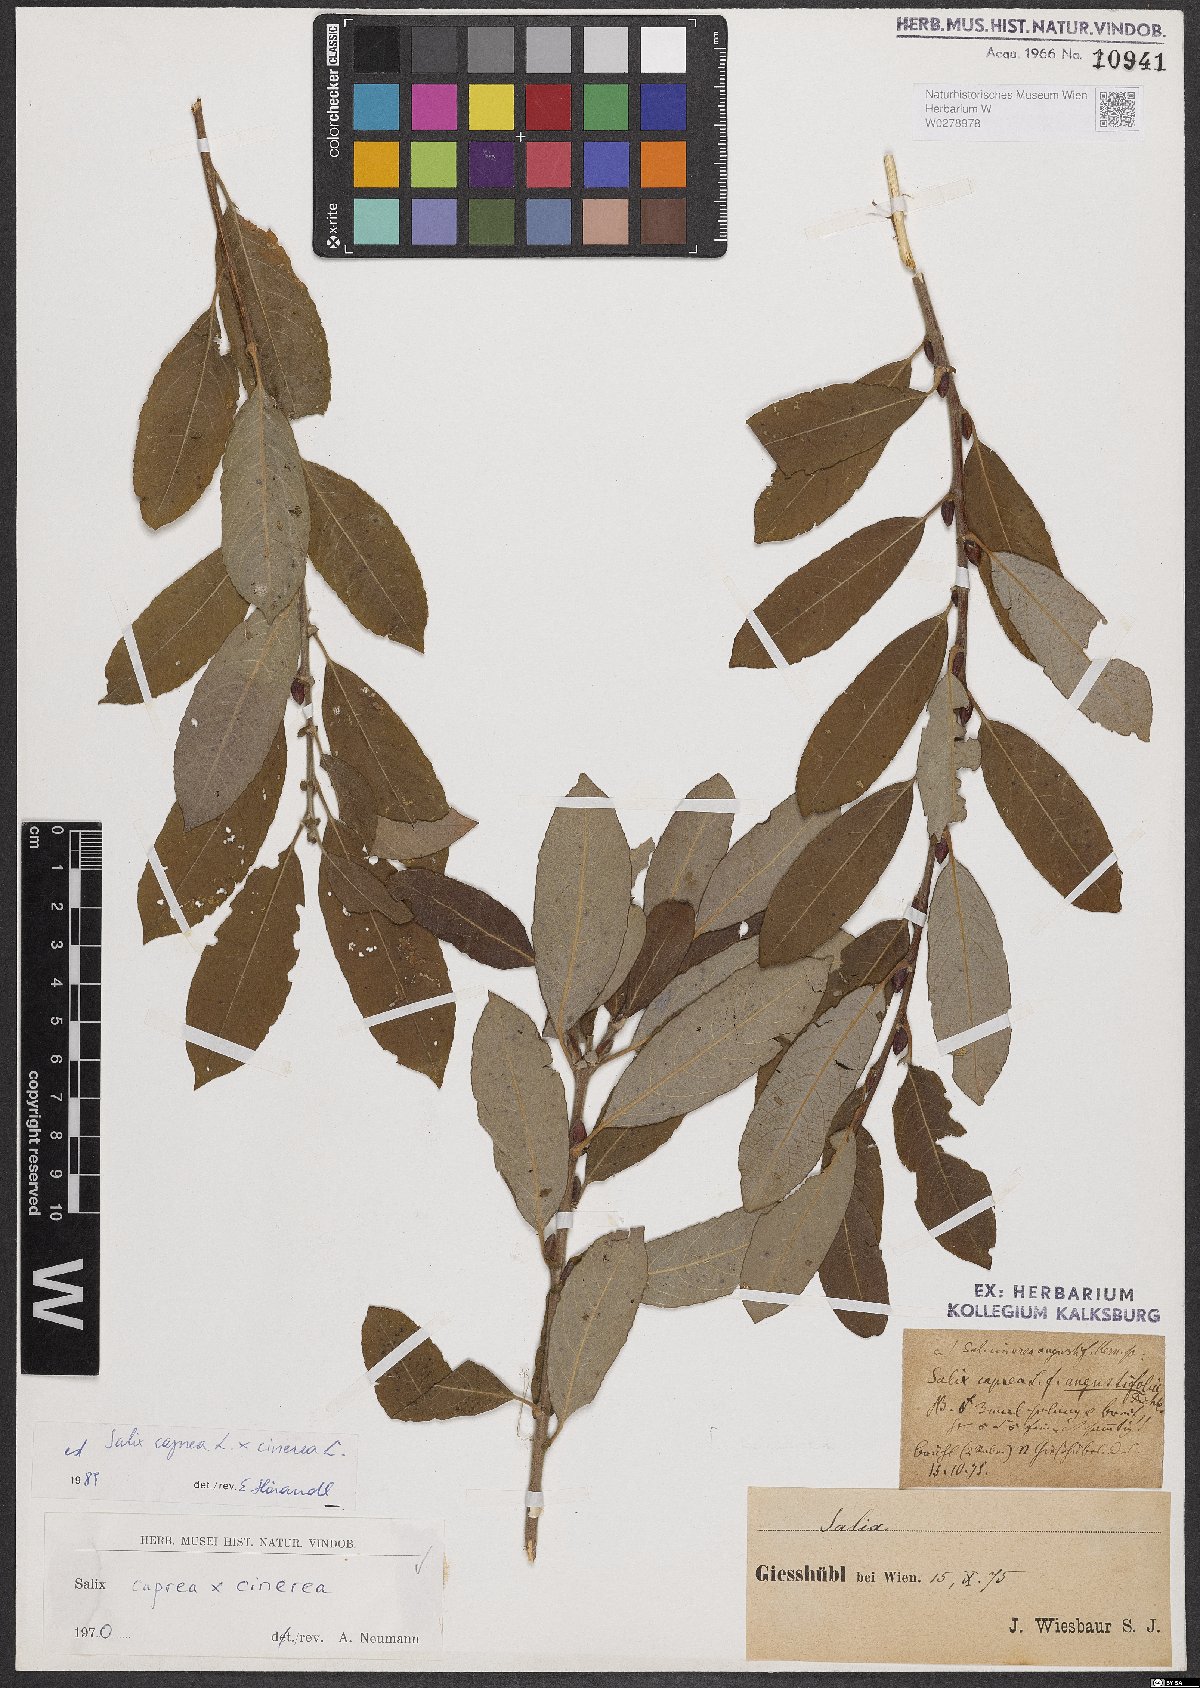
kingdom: Plantae
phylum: Tracheophyta
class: Magnoliopsida
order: Malpighiales
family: Salicaceae
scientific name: Salicaceae
